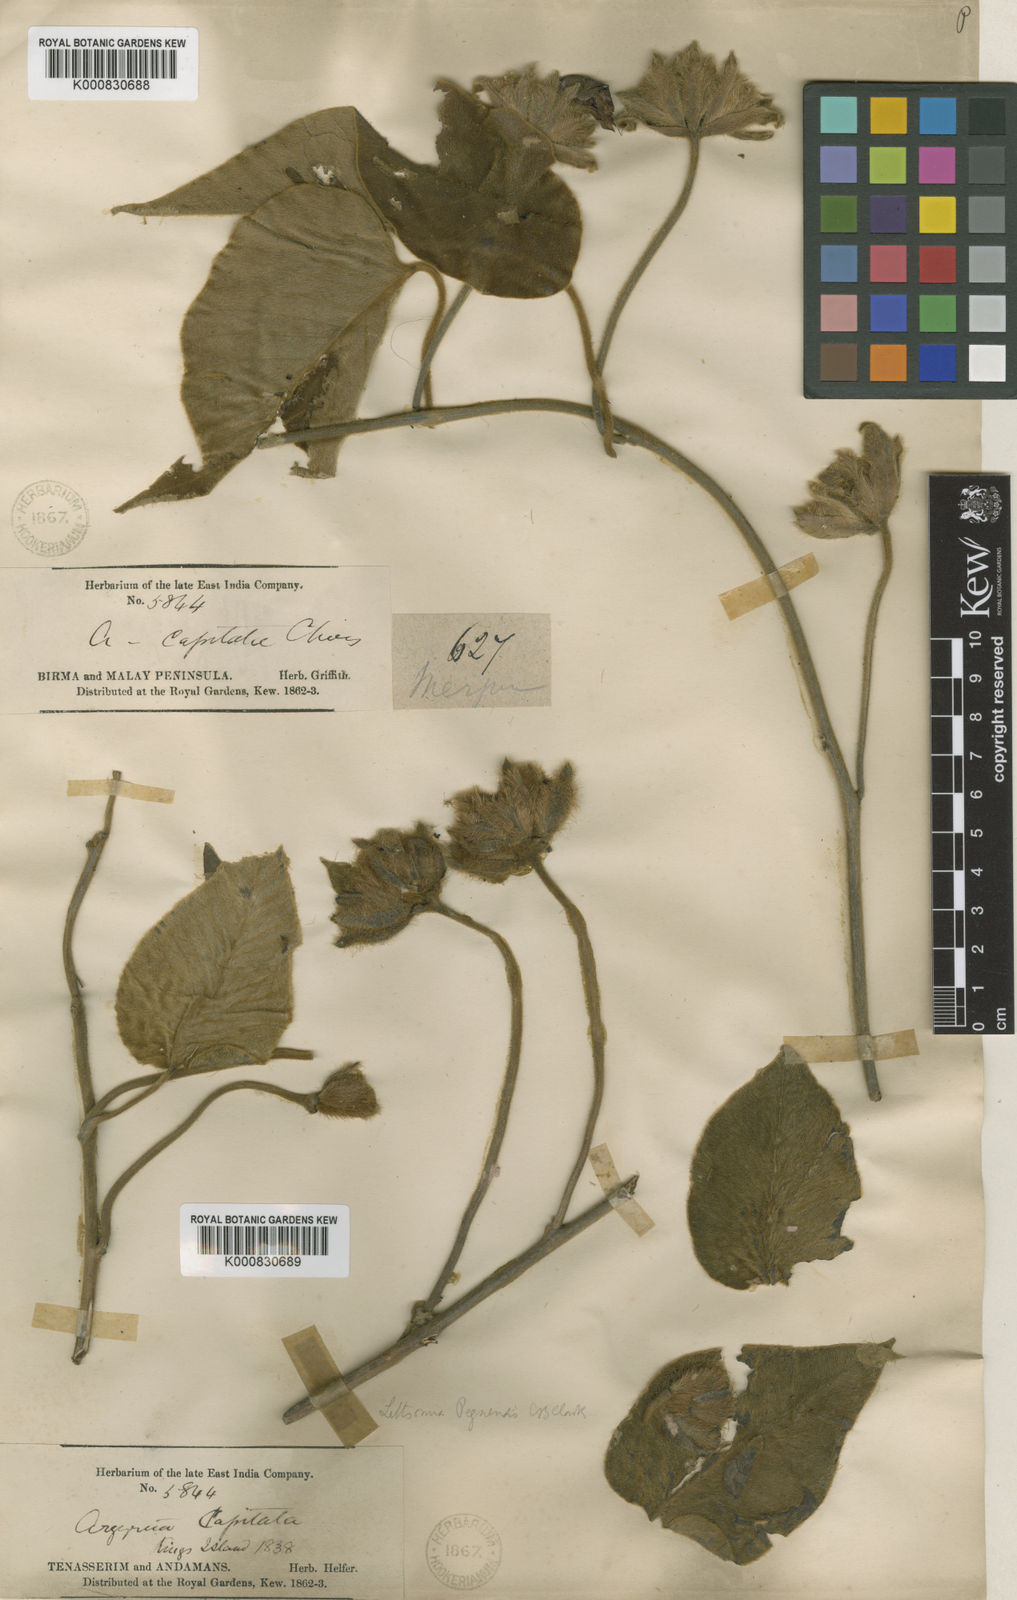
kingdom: Plantae
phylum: Tracheophyta
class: Magnoliopsida
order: Solanales
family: Convolvulaceae
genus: Argyreia
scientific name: Argyreia
